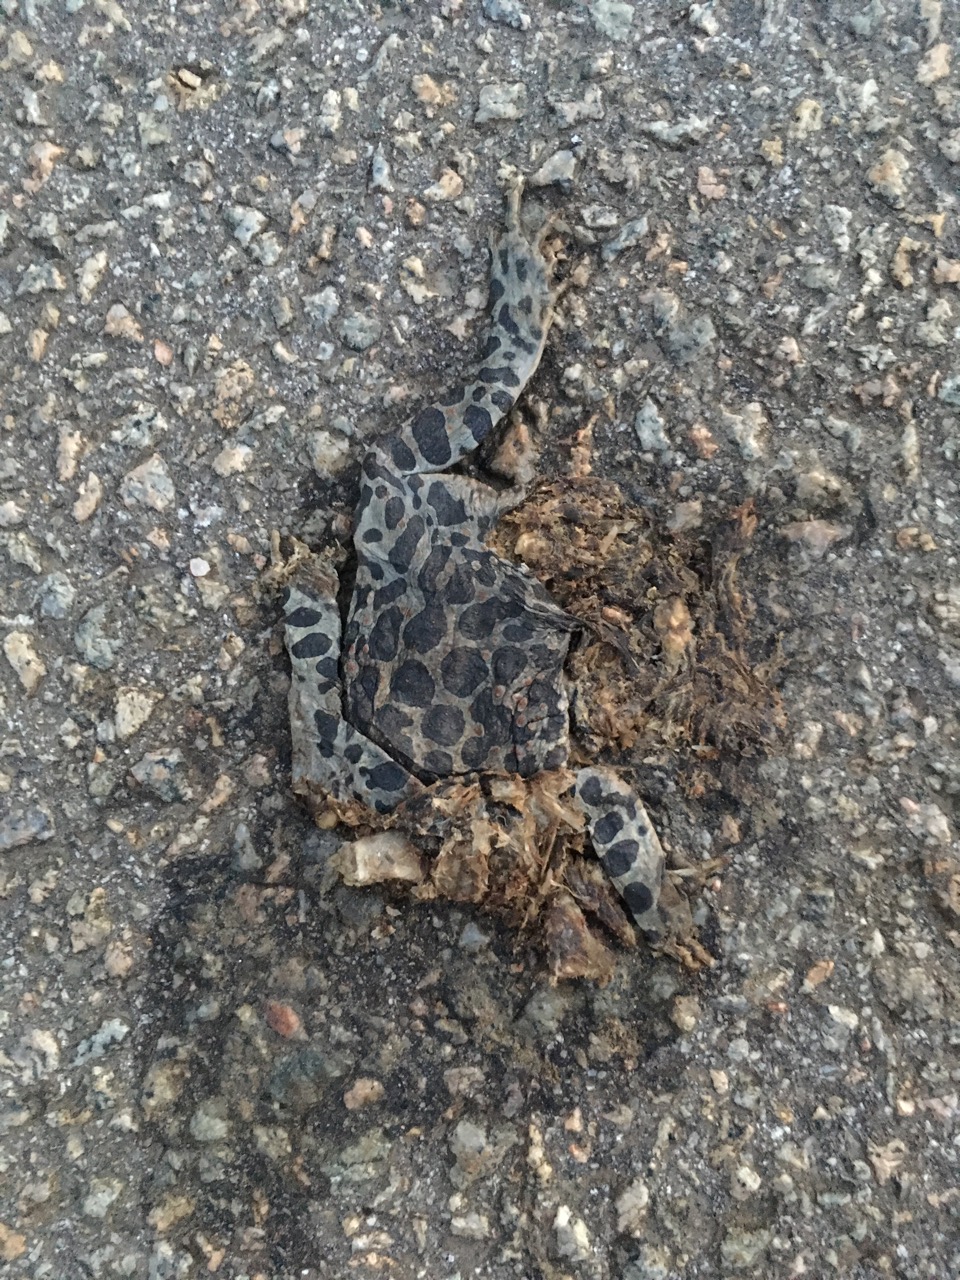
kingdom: Animalia
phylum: Chordata
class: Amphibia
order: Anura
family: Bufonidae
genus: Bufotes
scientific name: Bufotes viridis
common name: European green toad
